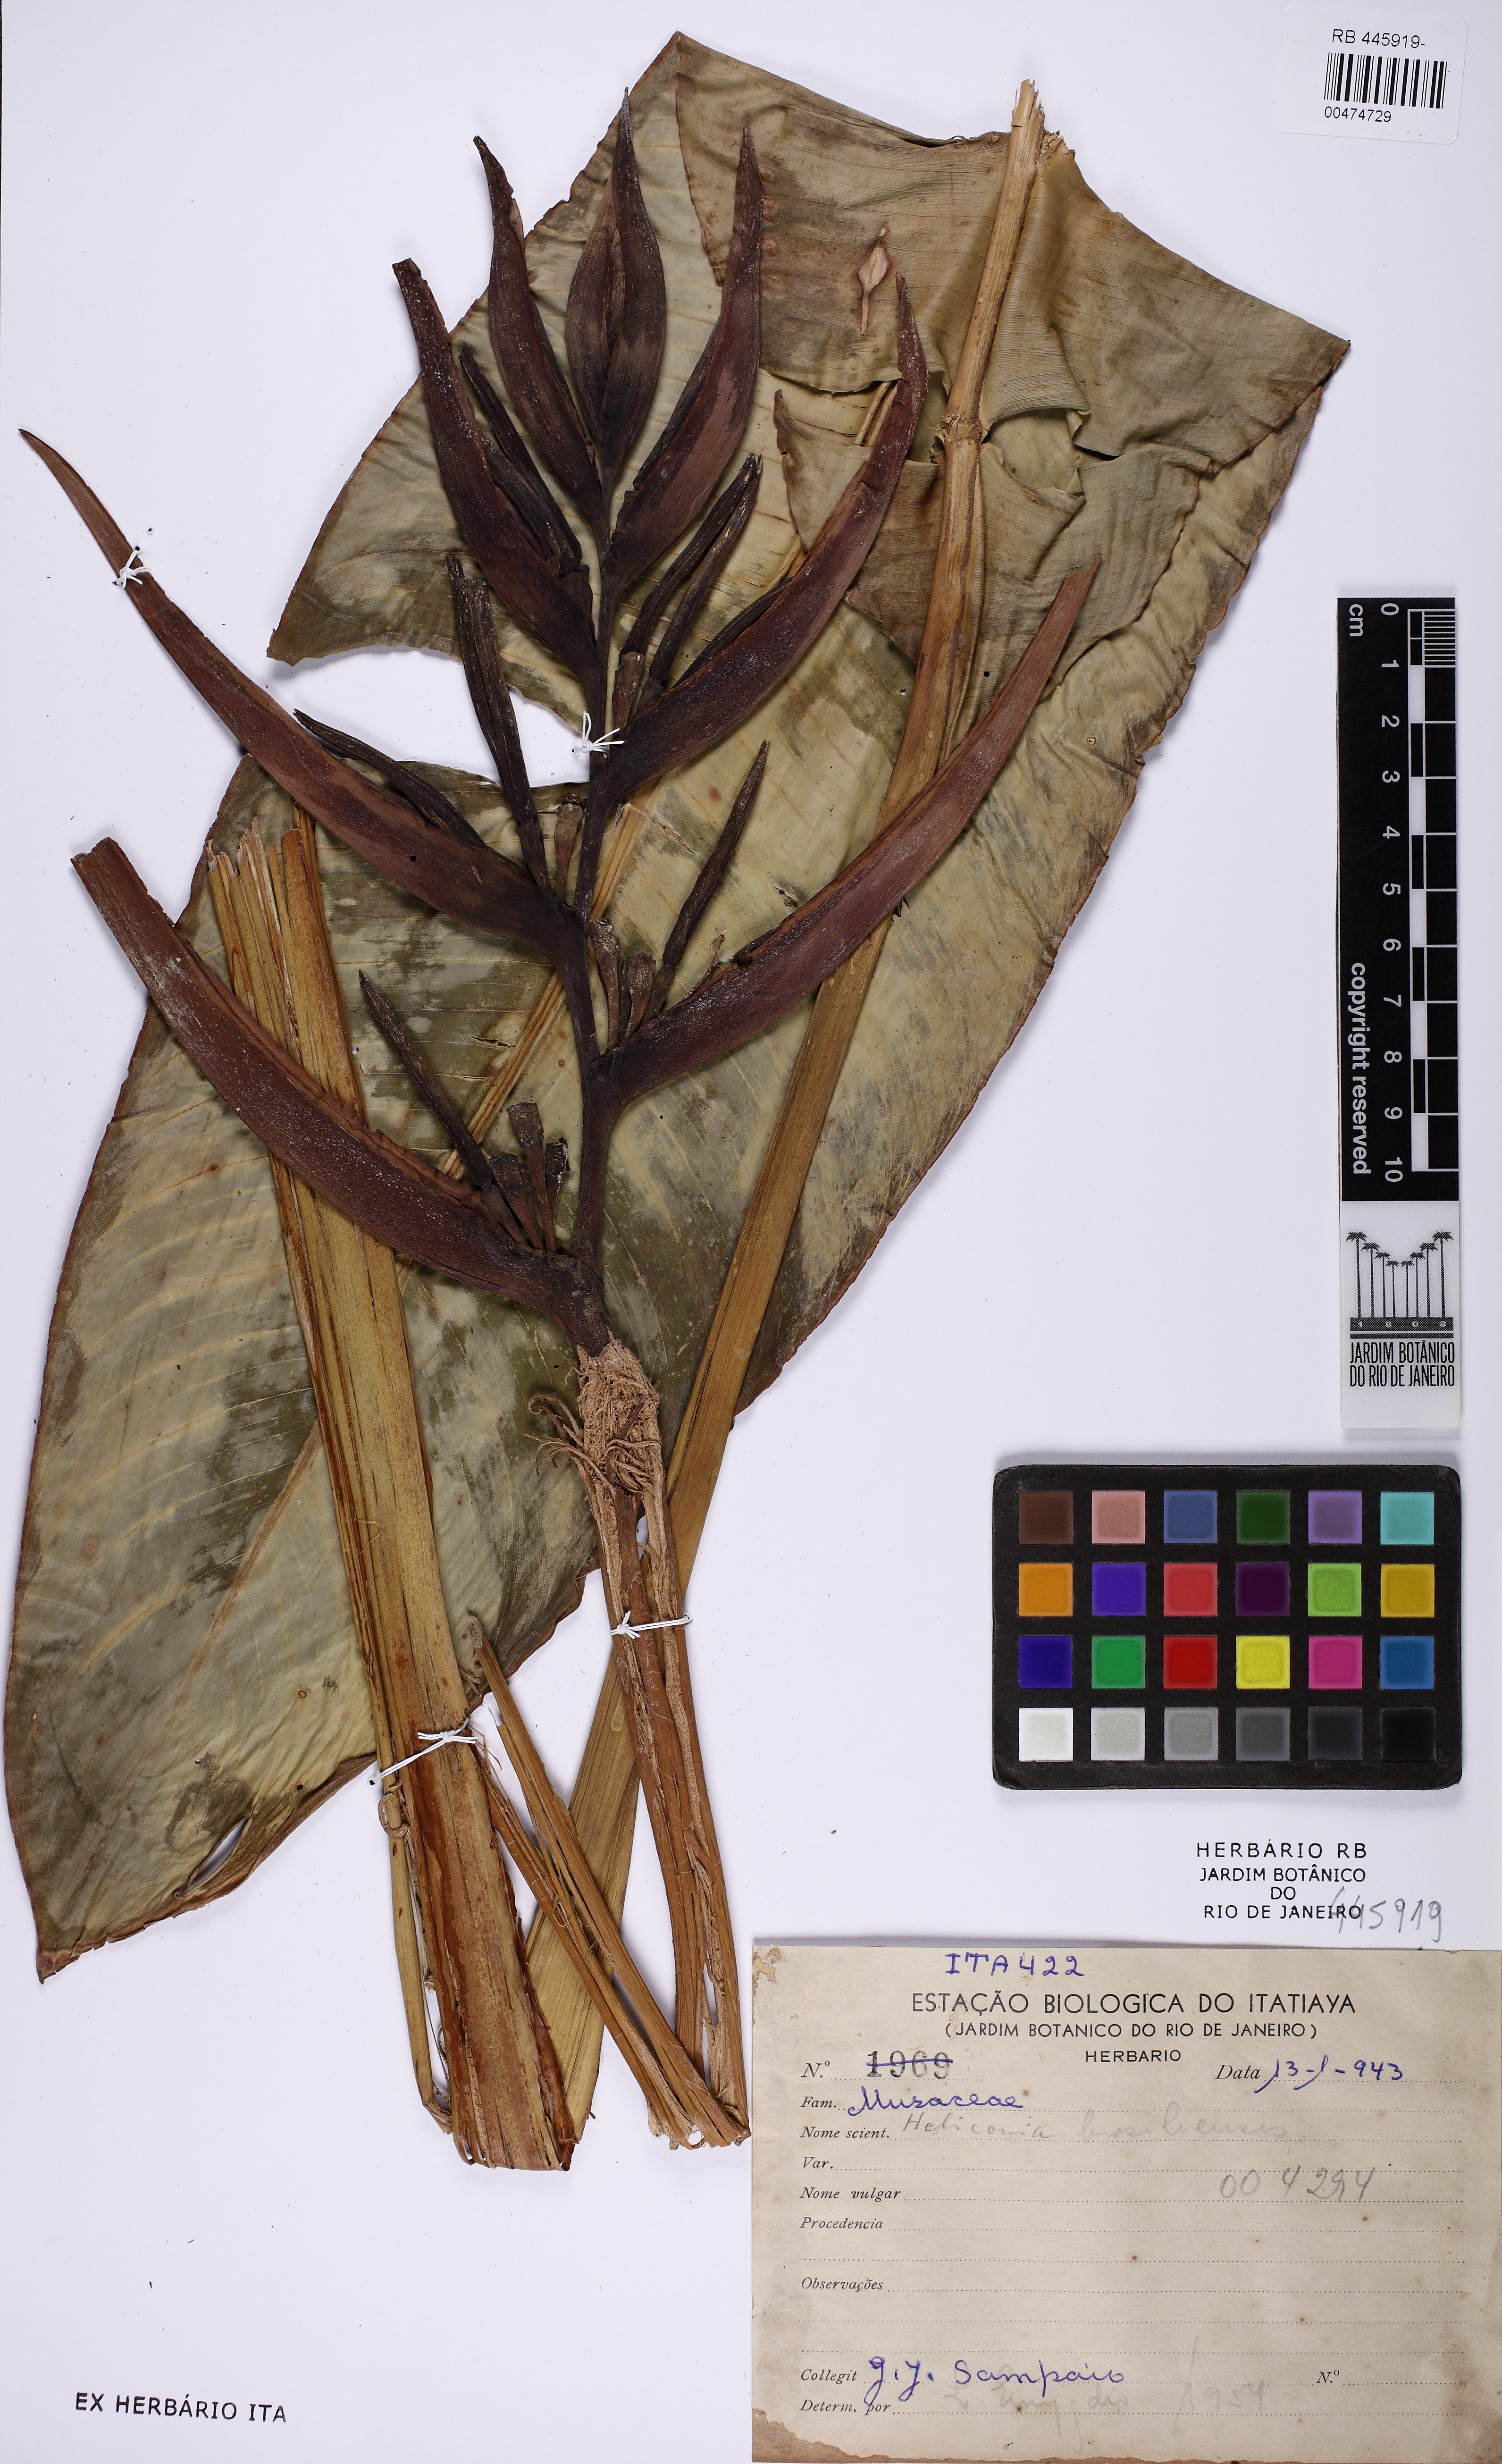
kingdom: Plantae
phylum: Tracheophyta
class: Liliopsida
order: Zingiberales
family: Heliconiaceae
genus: Heliconia
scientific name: Heliconia angusta
